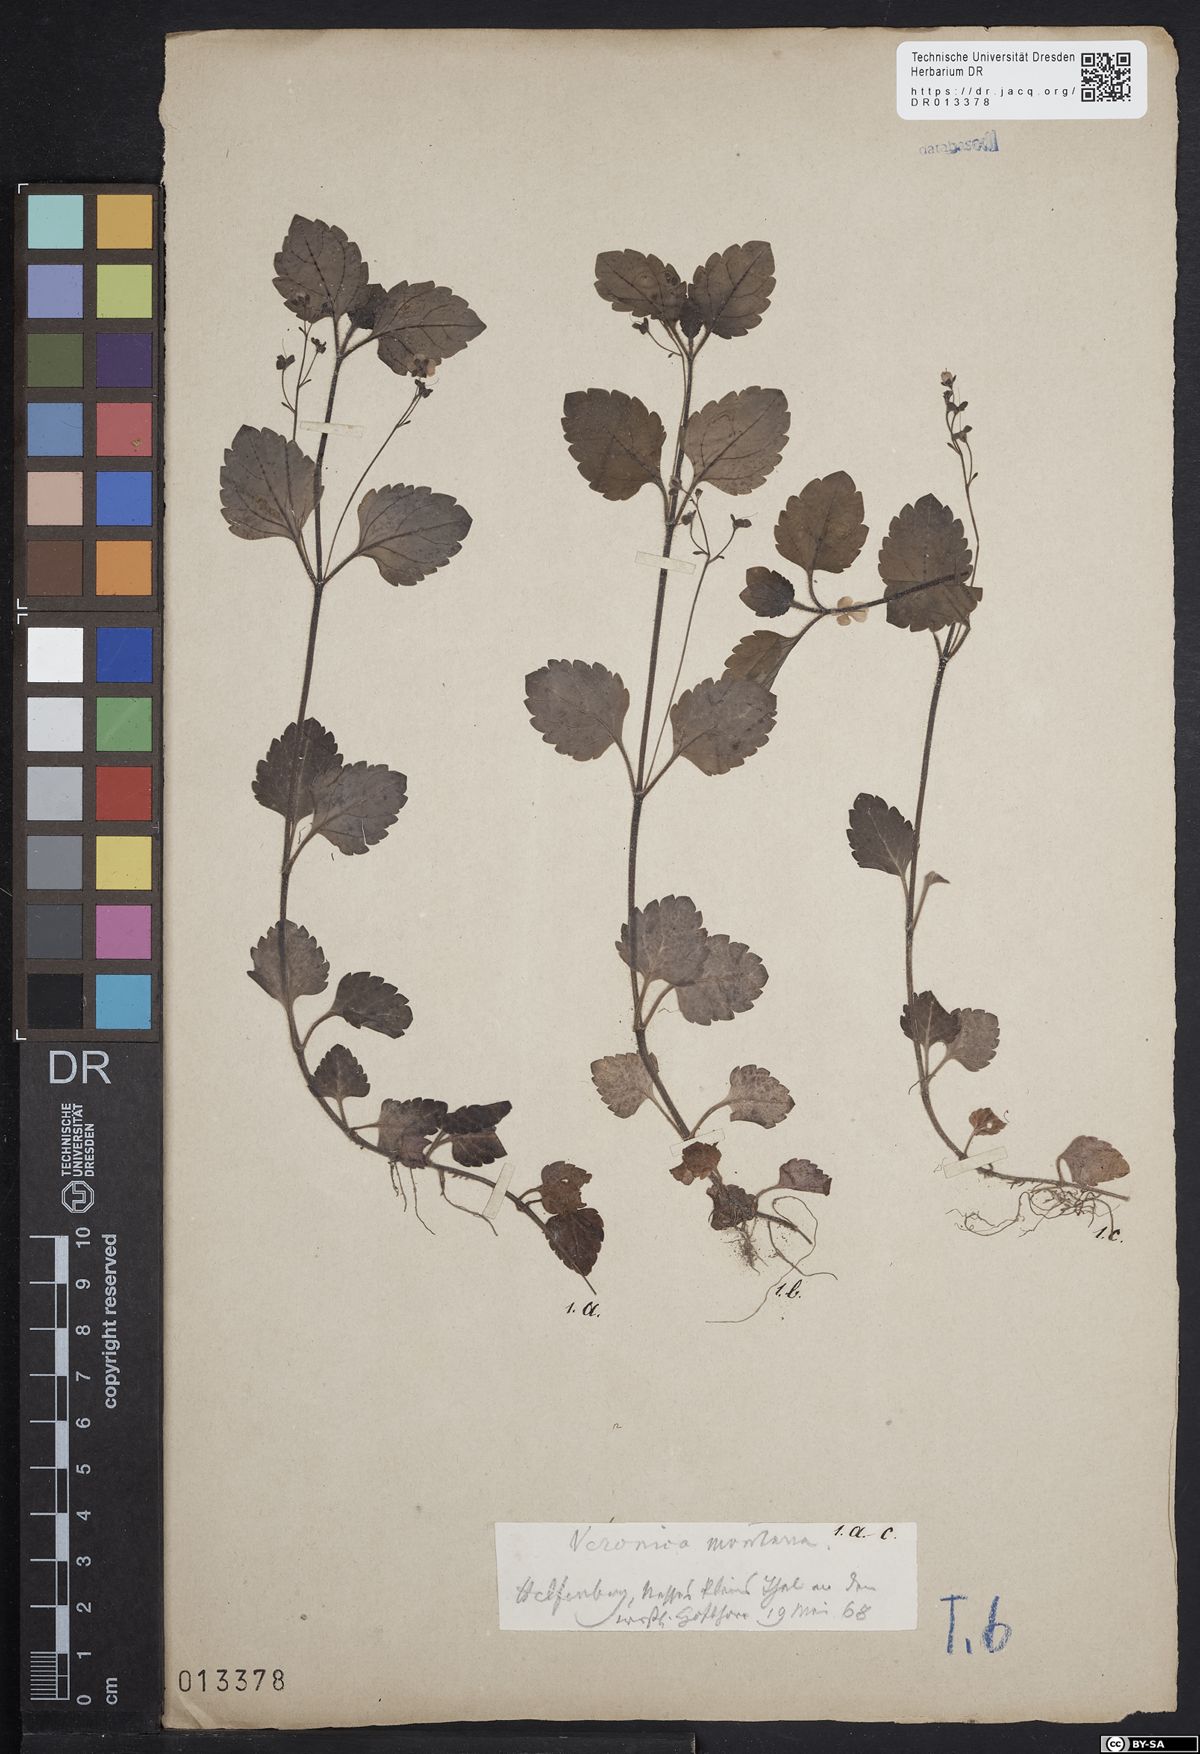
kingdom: Plantae
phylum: Tracheophyta
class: Magnoliopsida
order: Lamiales
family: Plantaginaceae
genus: Veronica
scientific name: Veronica montana
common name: Wood speedwell
